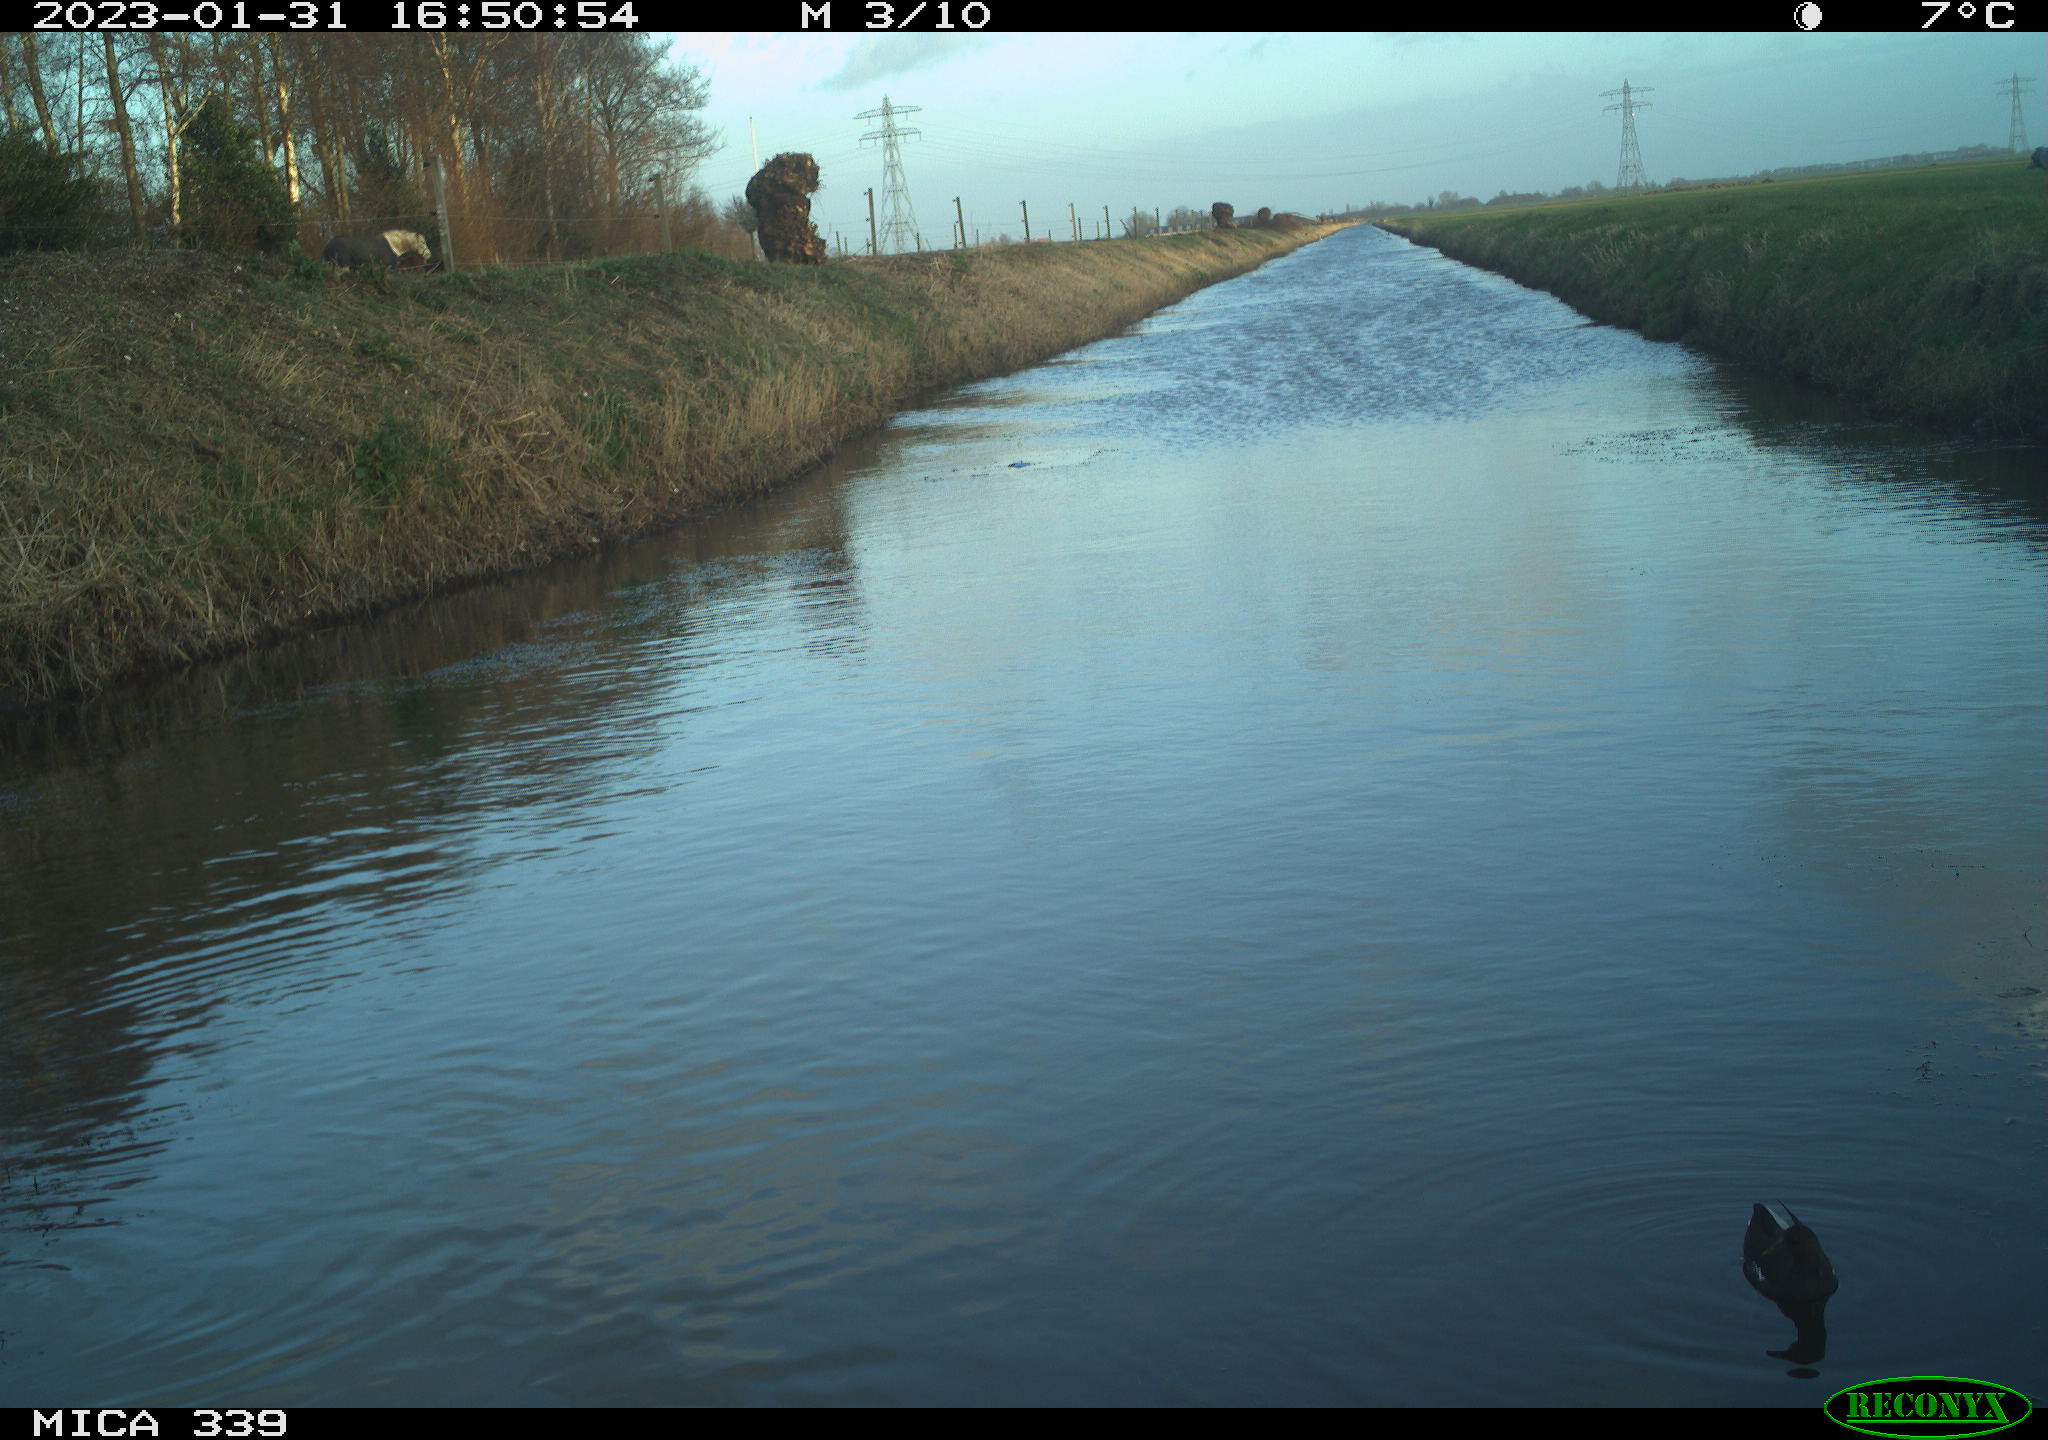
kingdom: Animalia
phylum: Chordata
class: Aves
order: Gruiformes
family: Rallidae
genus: Gallinula
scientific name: Gallinula chloropus
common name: Common moorhen
